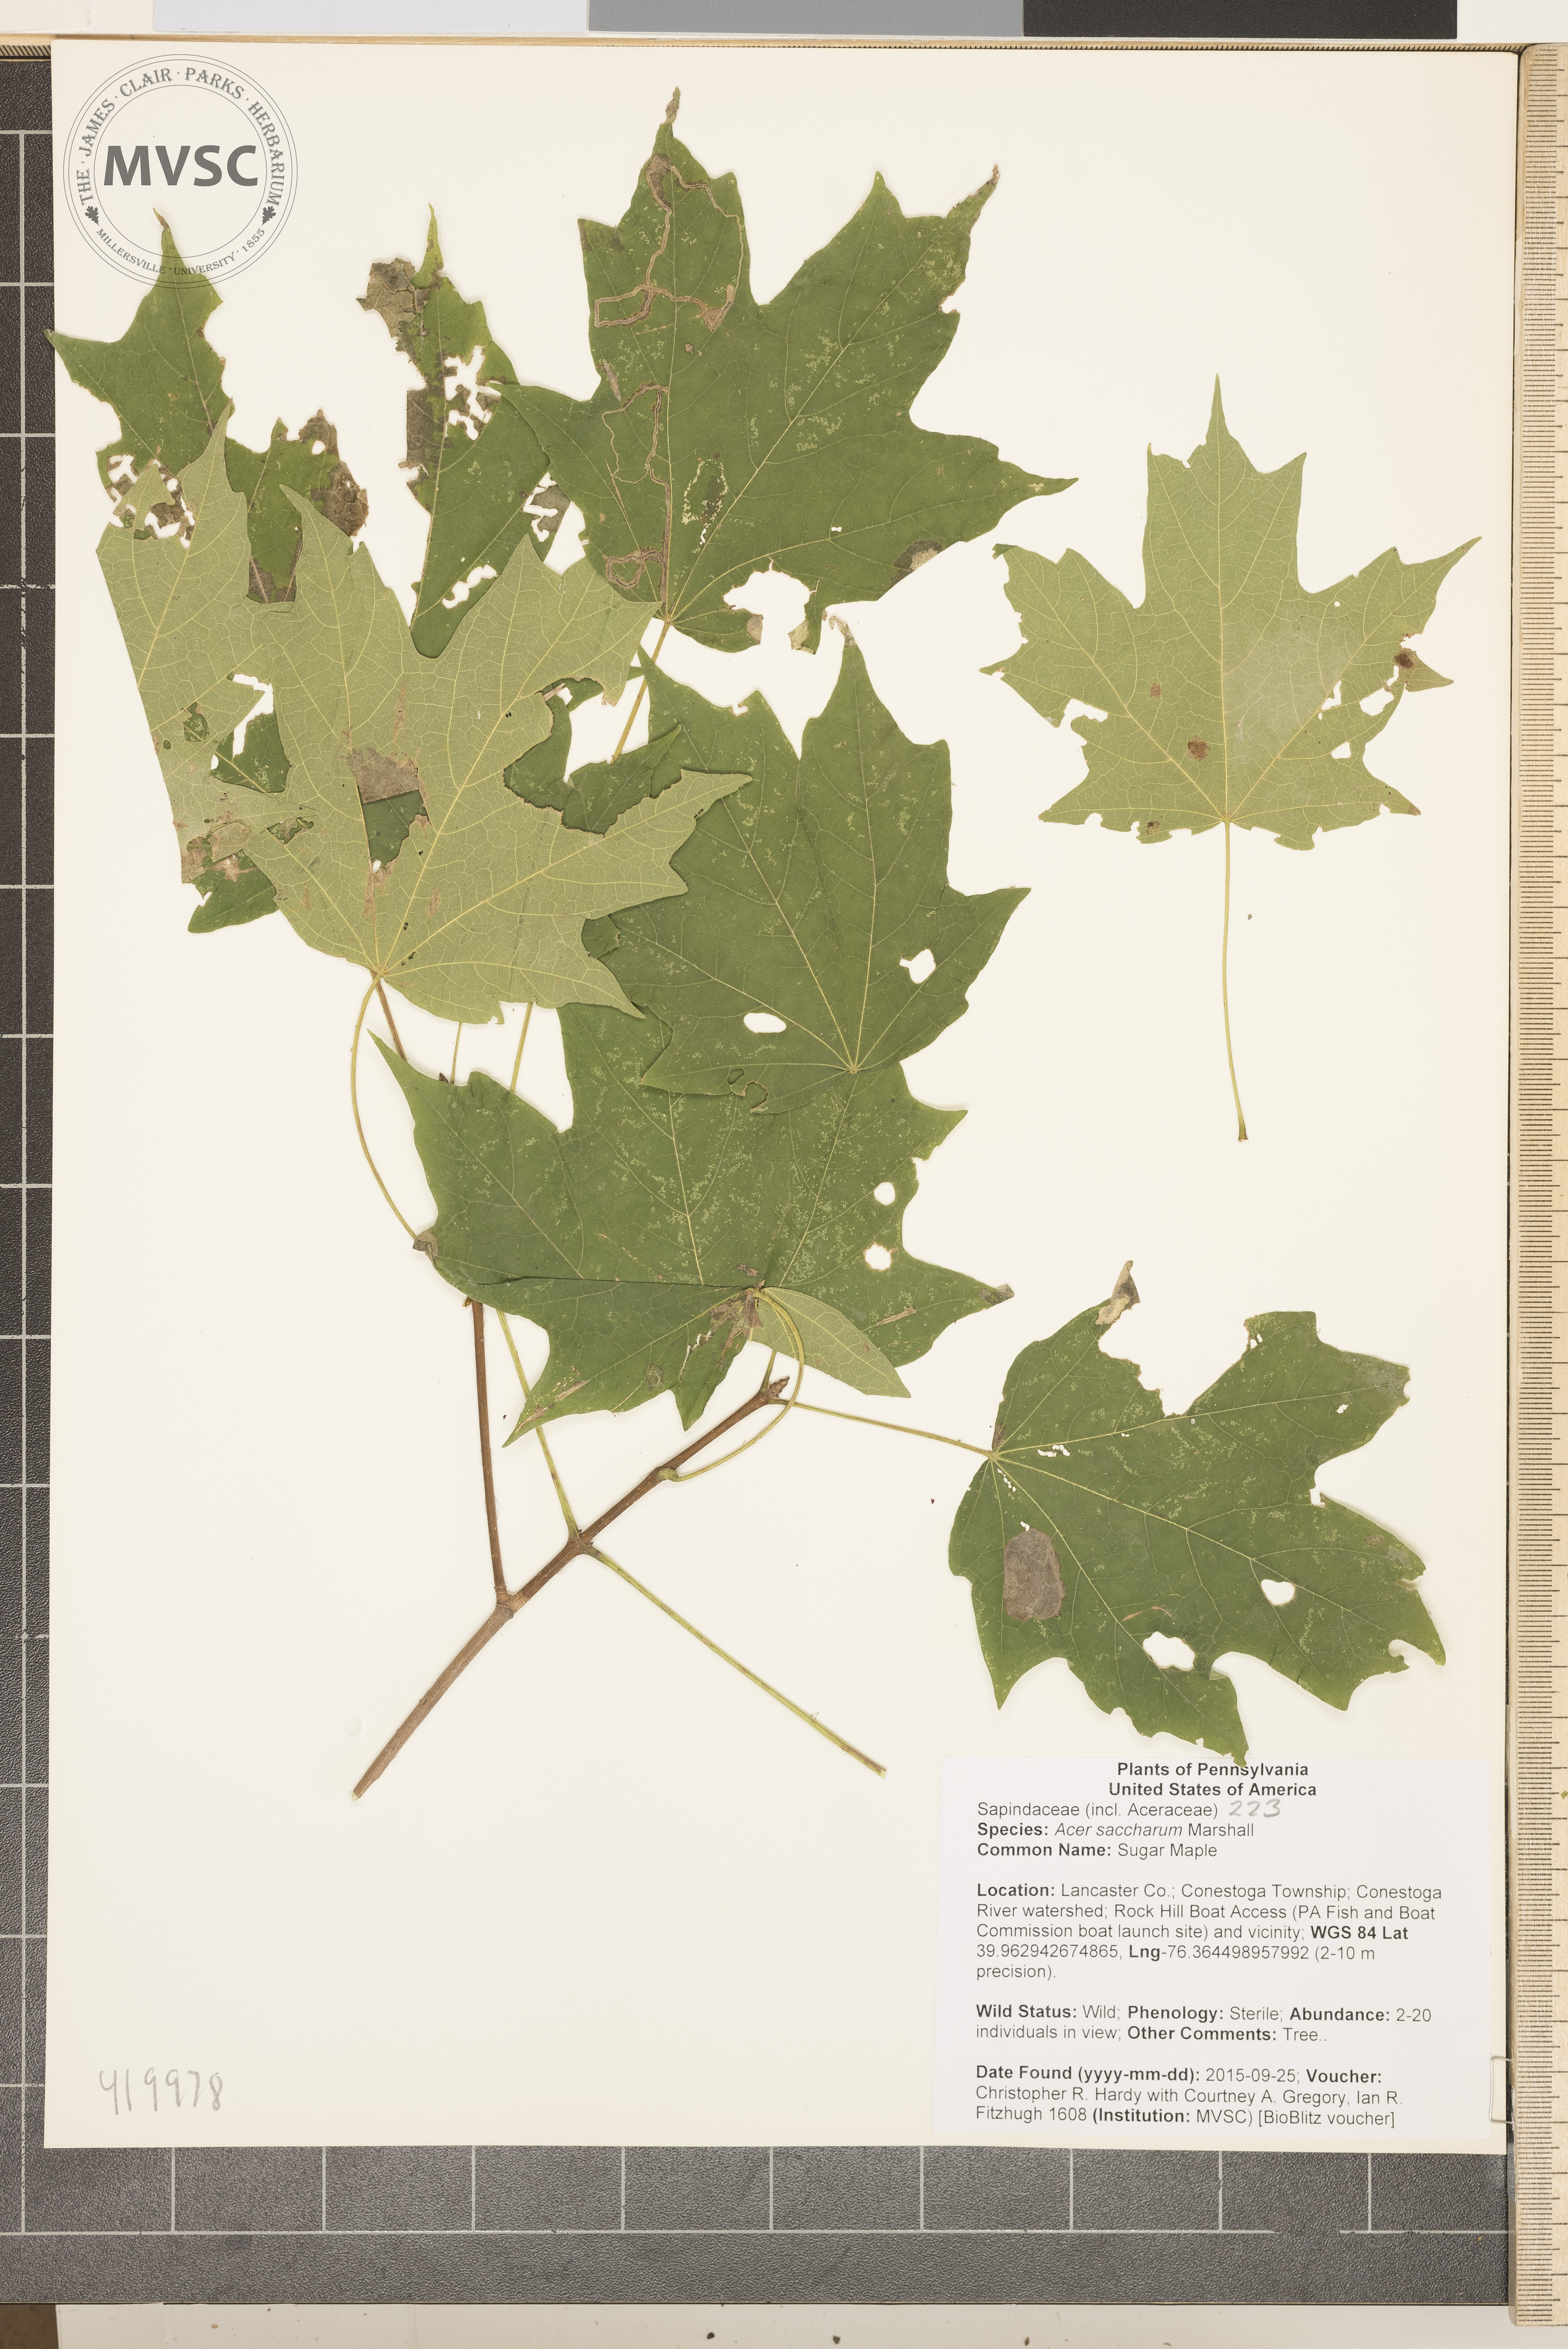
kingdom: Plantae
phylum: Tracheophyta
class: Magnoliopsida
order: Sapindales
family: Sapindaceae
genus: Acer
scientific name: Acer saccharum
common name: Sugar Maple
